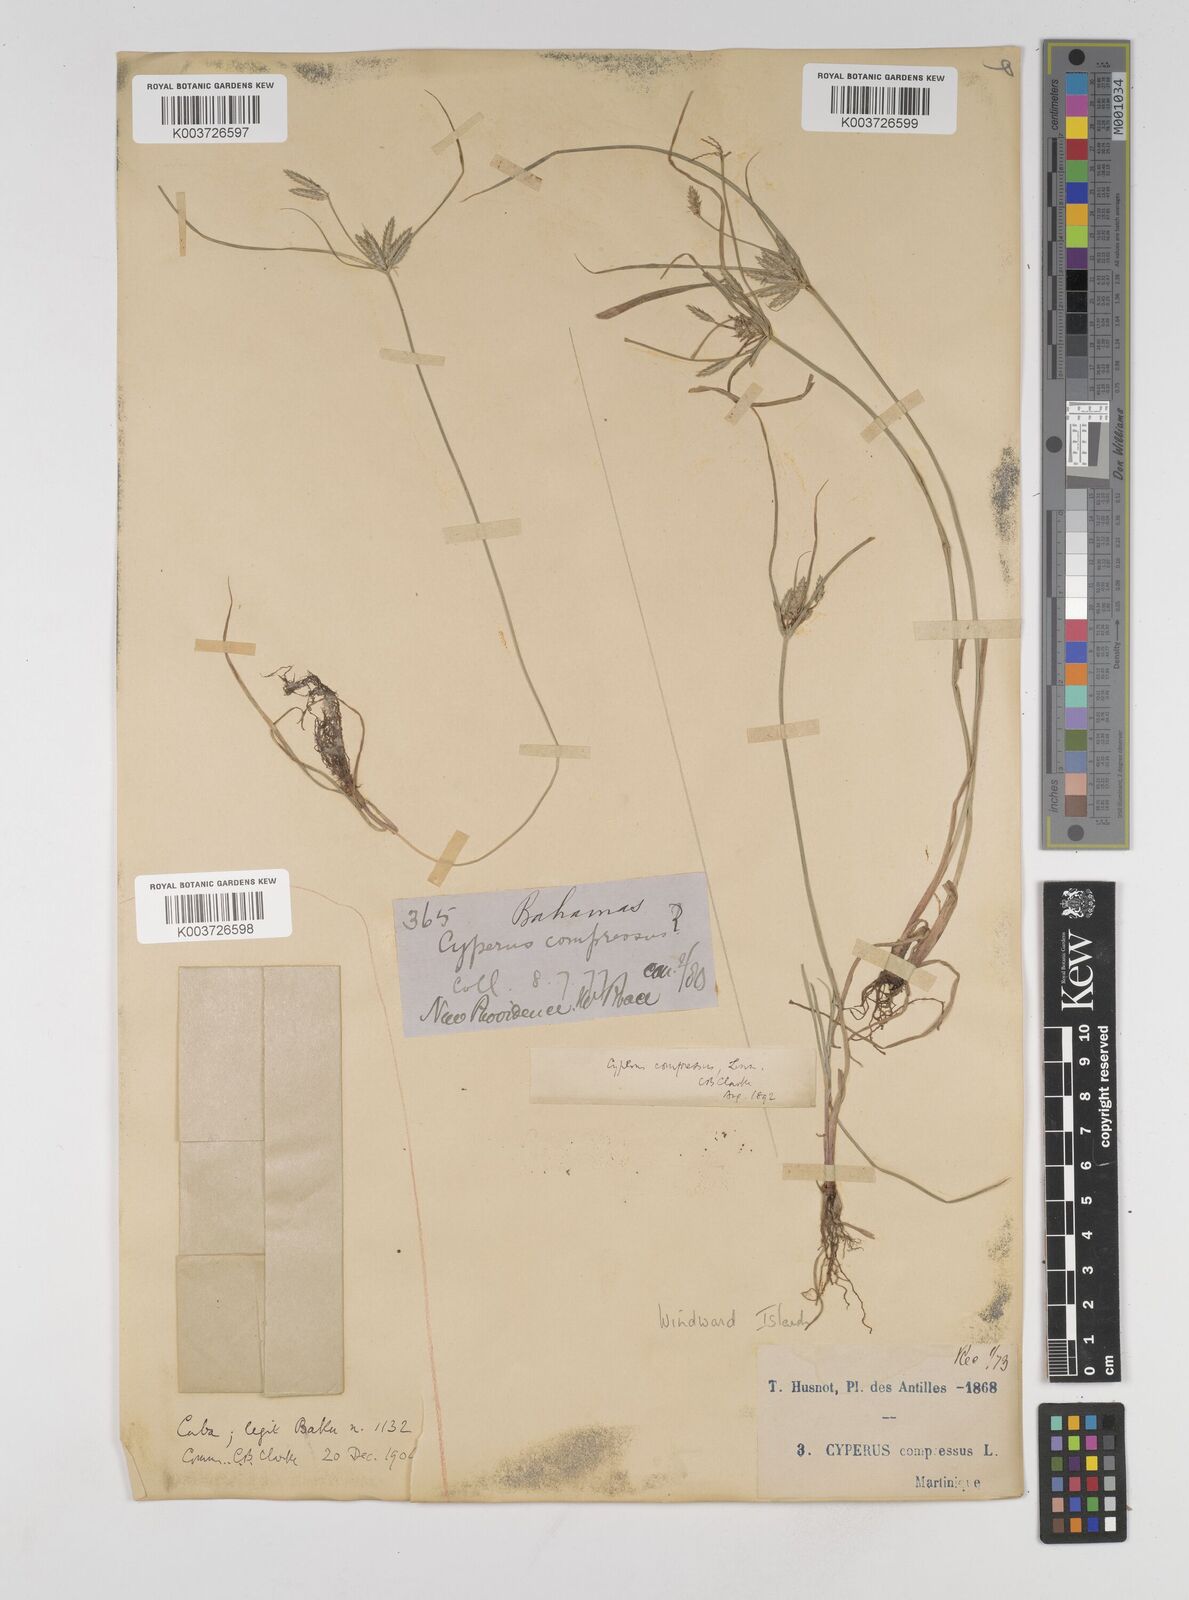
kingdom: Plantae
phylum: Tracheophyta
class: Liliopsida
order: Poales
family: Cyperaceae
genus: Cyperus
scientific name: Cyperus compressus
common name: Poorland flatsedge
